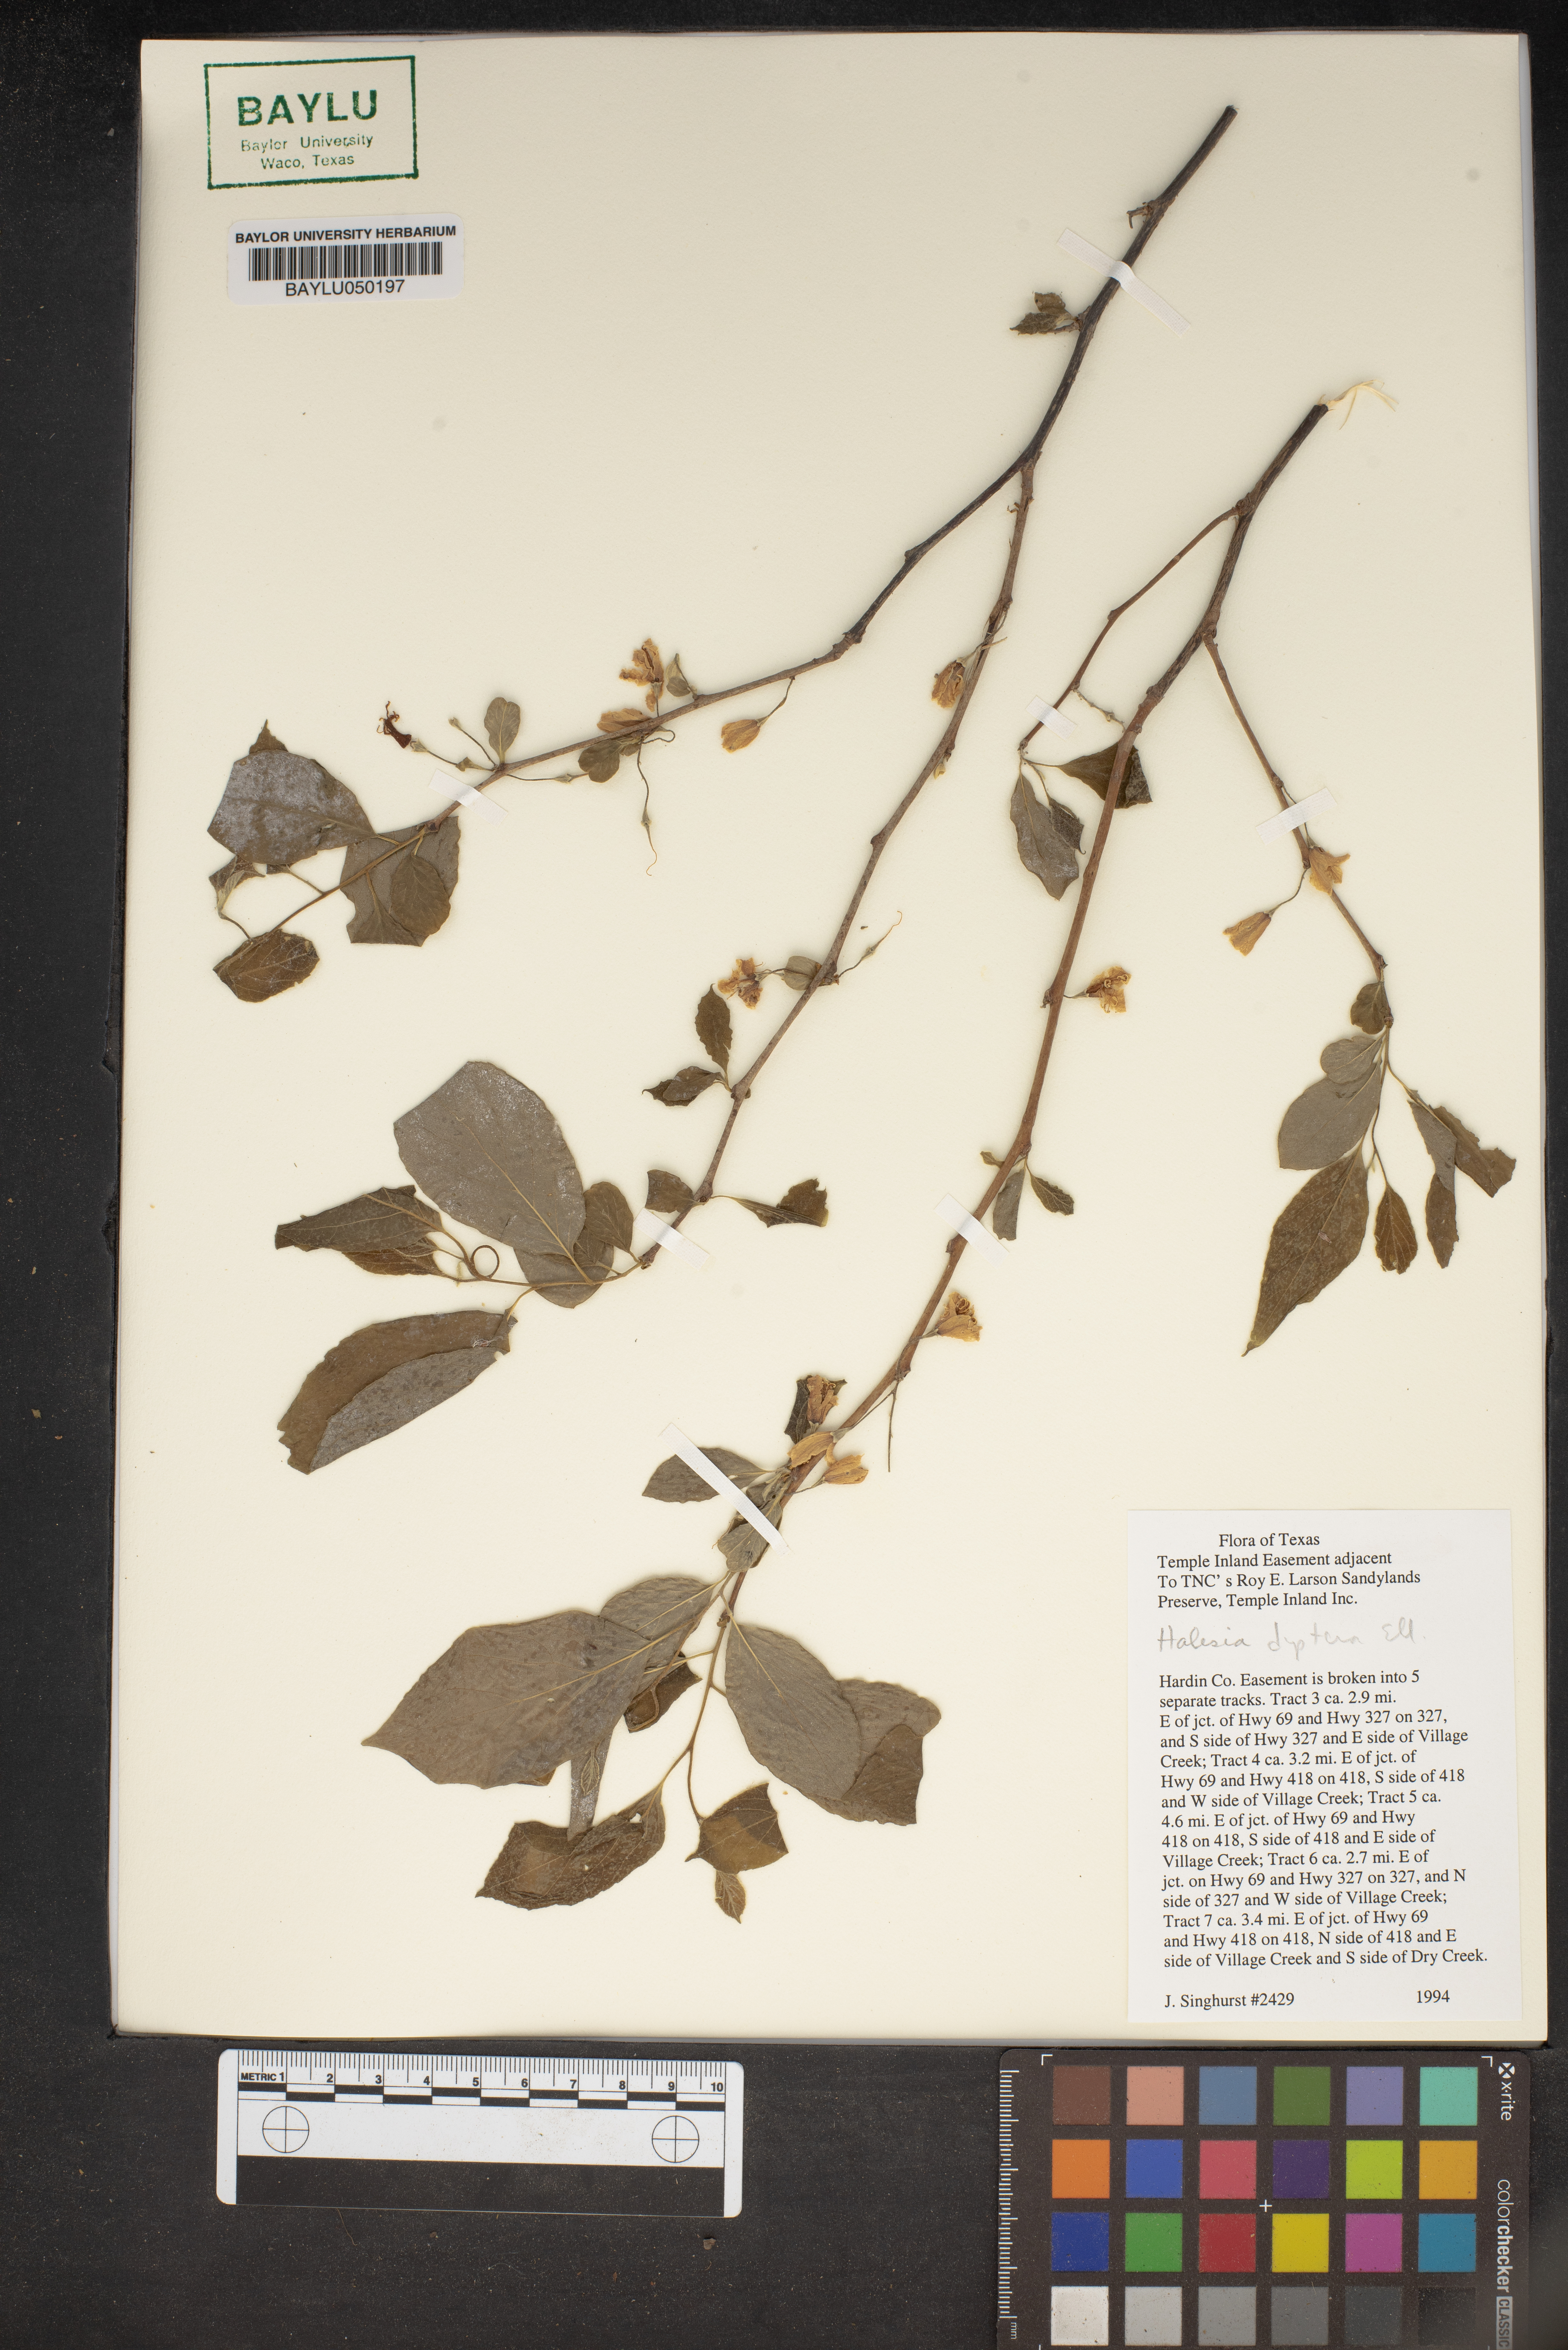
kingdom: Plantae
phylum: Tracheophyta
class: Magnoliopsida
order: Ericales
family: Styracaceae
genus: Halesia
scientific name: Halesia diptera
